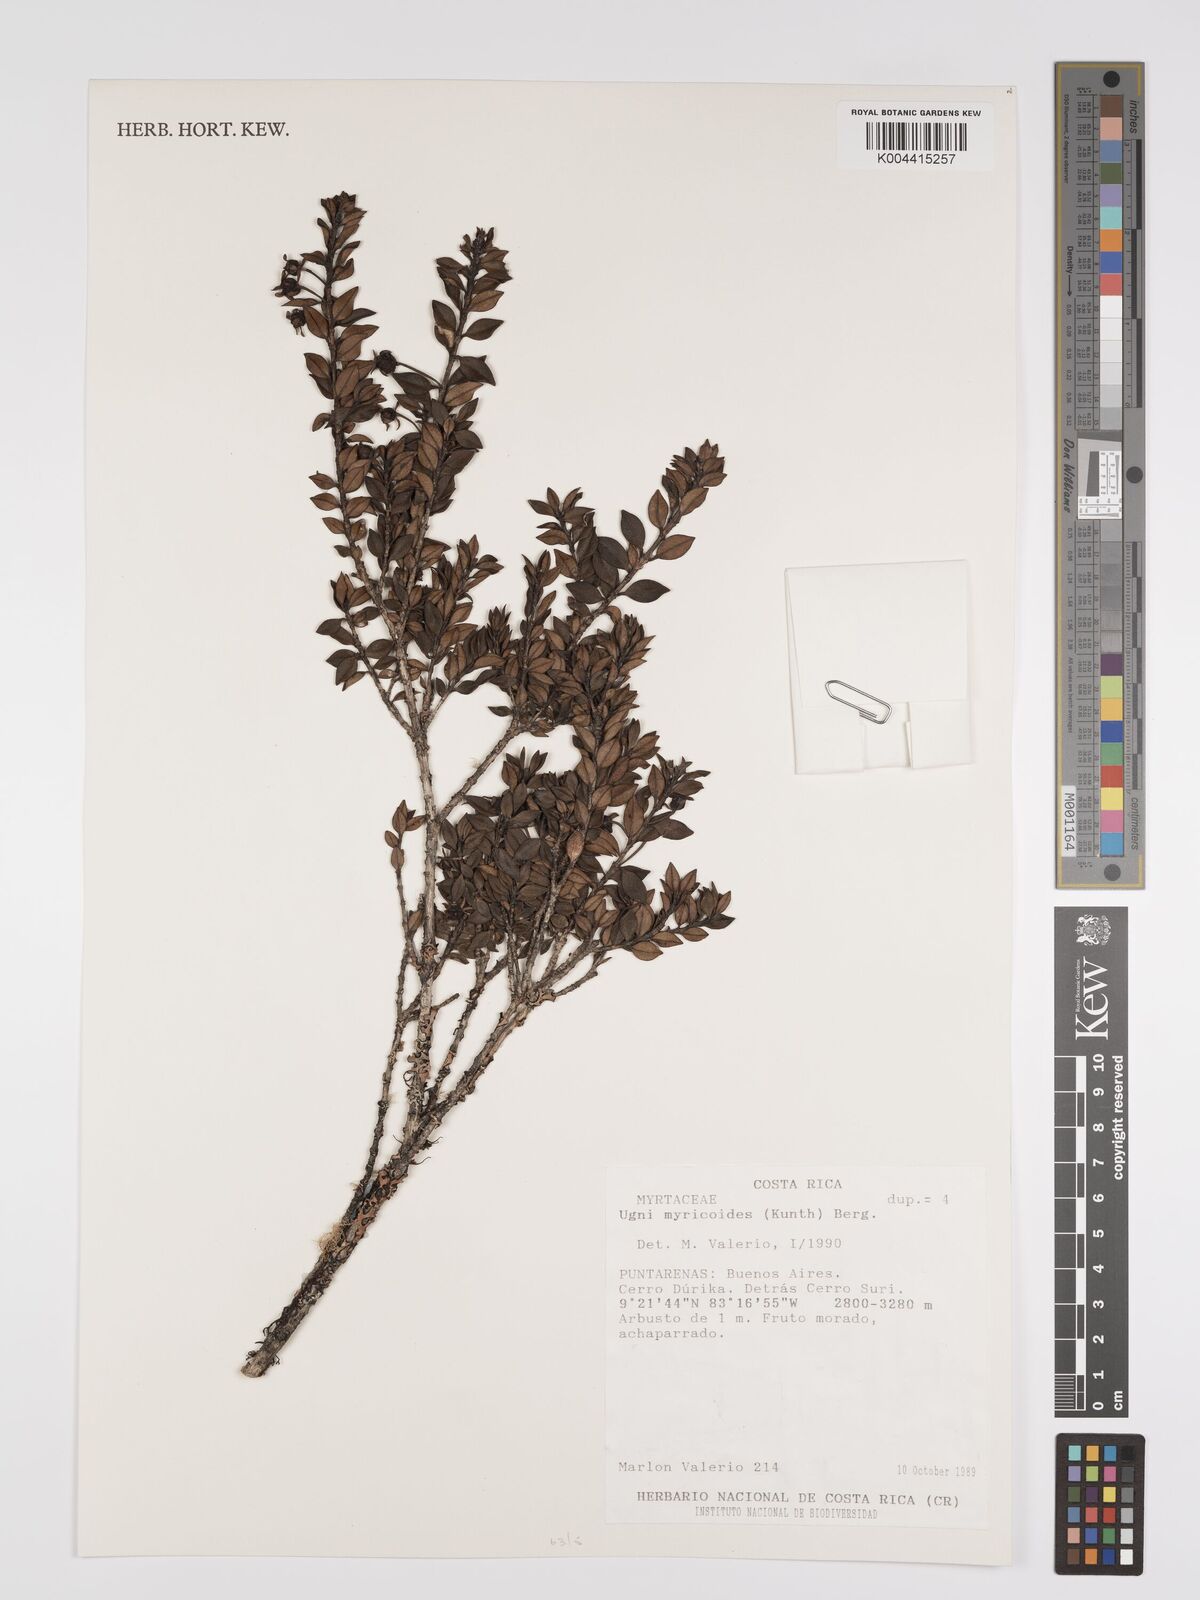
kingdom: Plantae
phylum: Tracheophyta
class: Magnoliopsida
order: Myrtales
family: Myrtaceae
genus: Ugni
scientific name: Ugni myricoides
